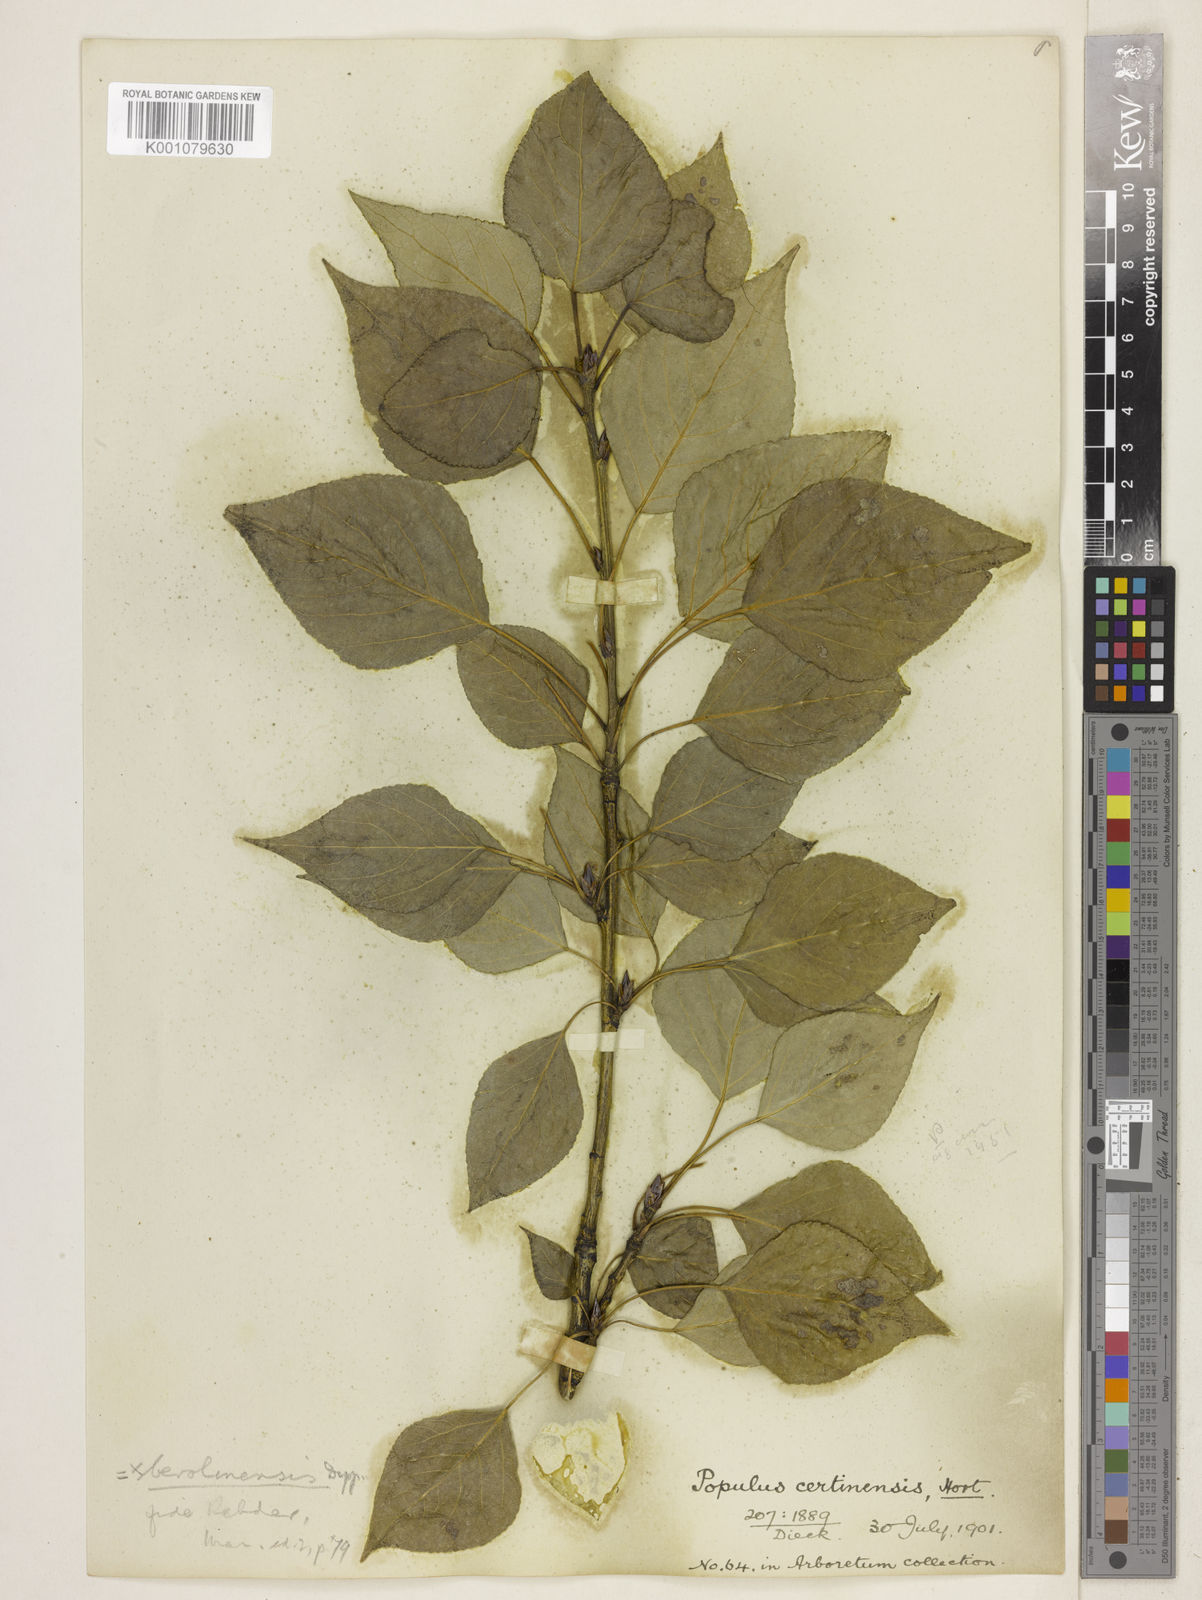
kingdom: Plantae
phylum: Tracheophyta
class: Magnoliopsida
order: Malpighiales
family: Salicaceae
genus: Populus
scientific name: Populus
